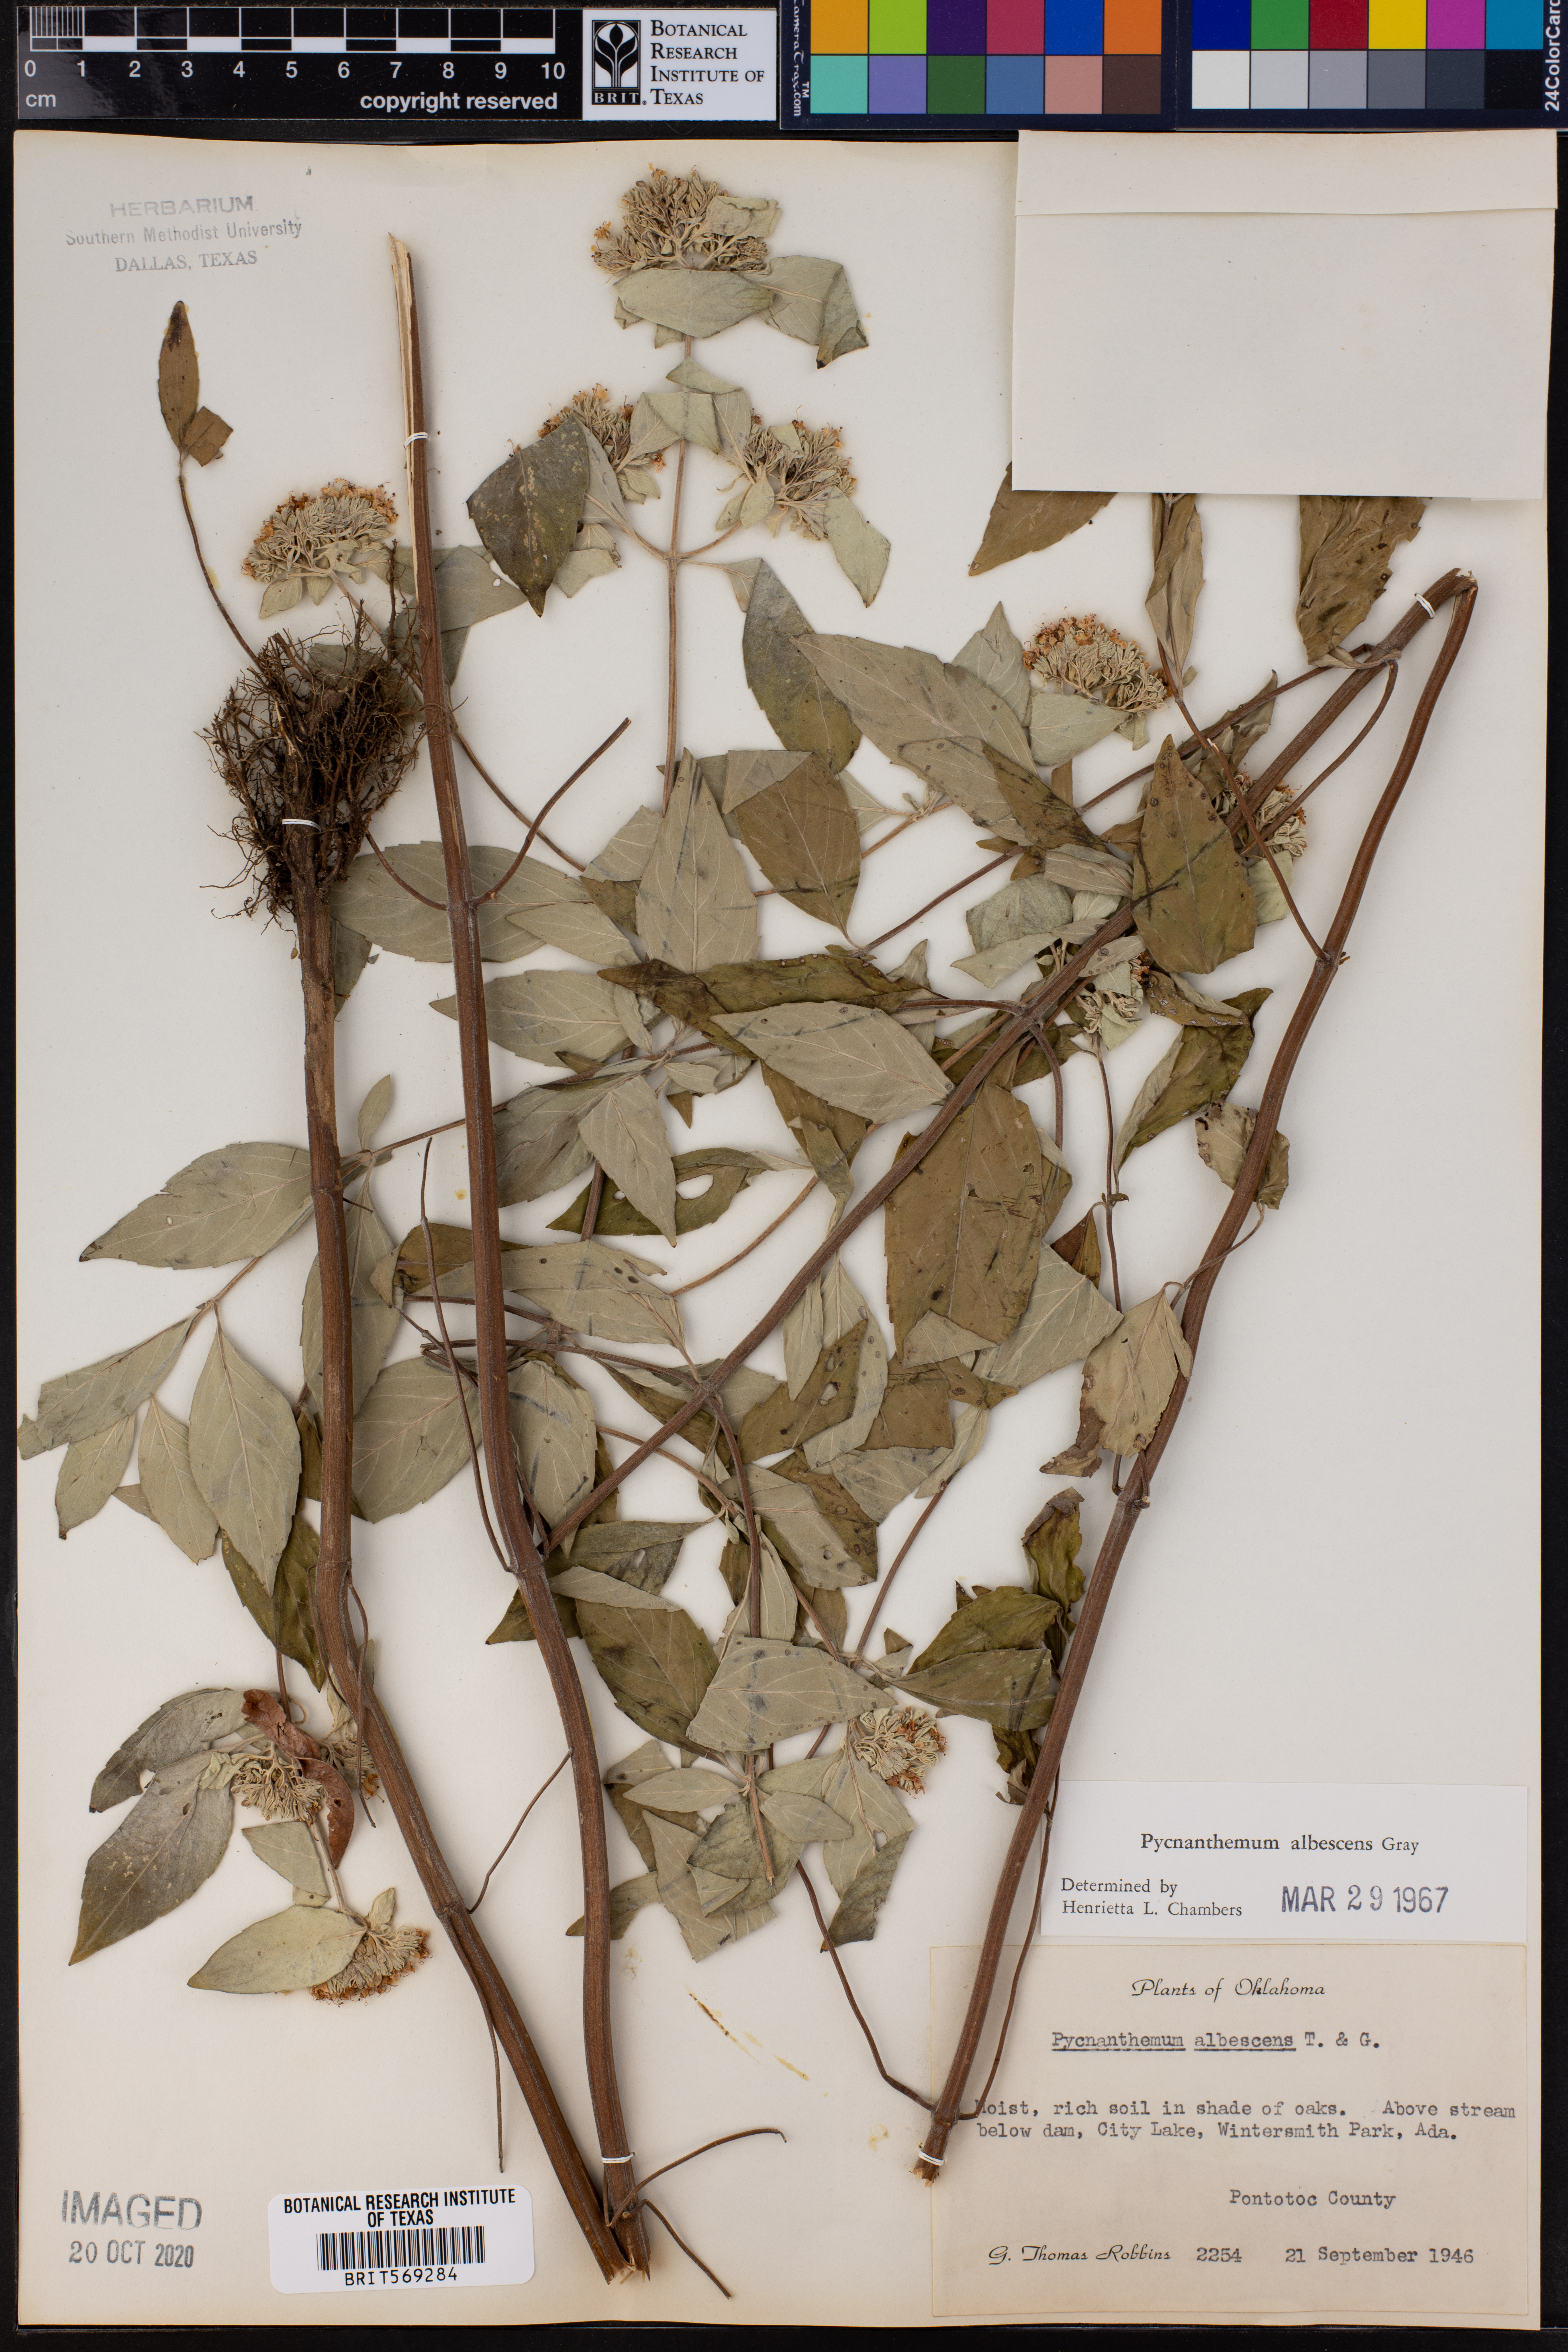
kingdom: Plantae
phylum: Tracheophyta
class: Magnoliopsida
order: Lamiales
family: Lamiaceae
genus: Pycnanthemum
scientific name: Pycnanthemum albescens
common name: White-leaf mountain-mint
